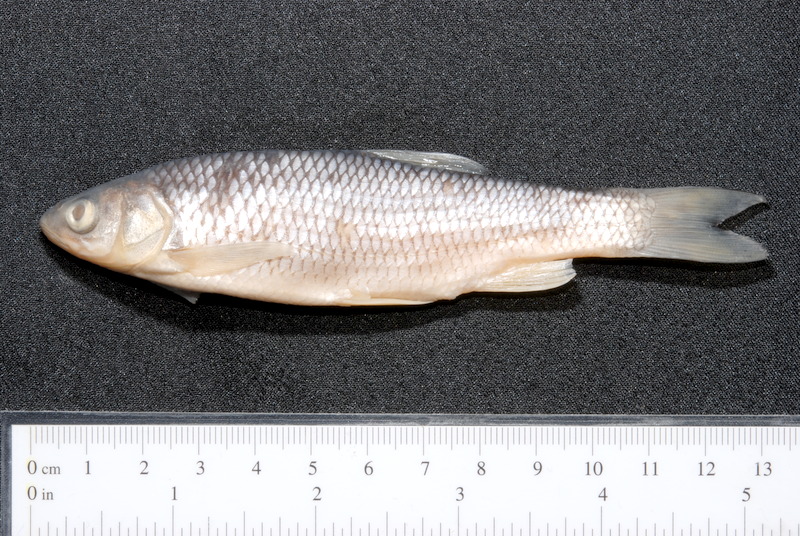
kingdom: Animalia
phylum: Chordata
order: Cypriniformes
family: Cyprinidae
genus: Squalius
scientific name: Squalius cephalus
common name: Chub
